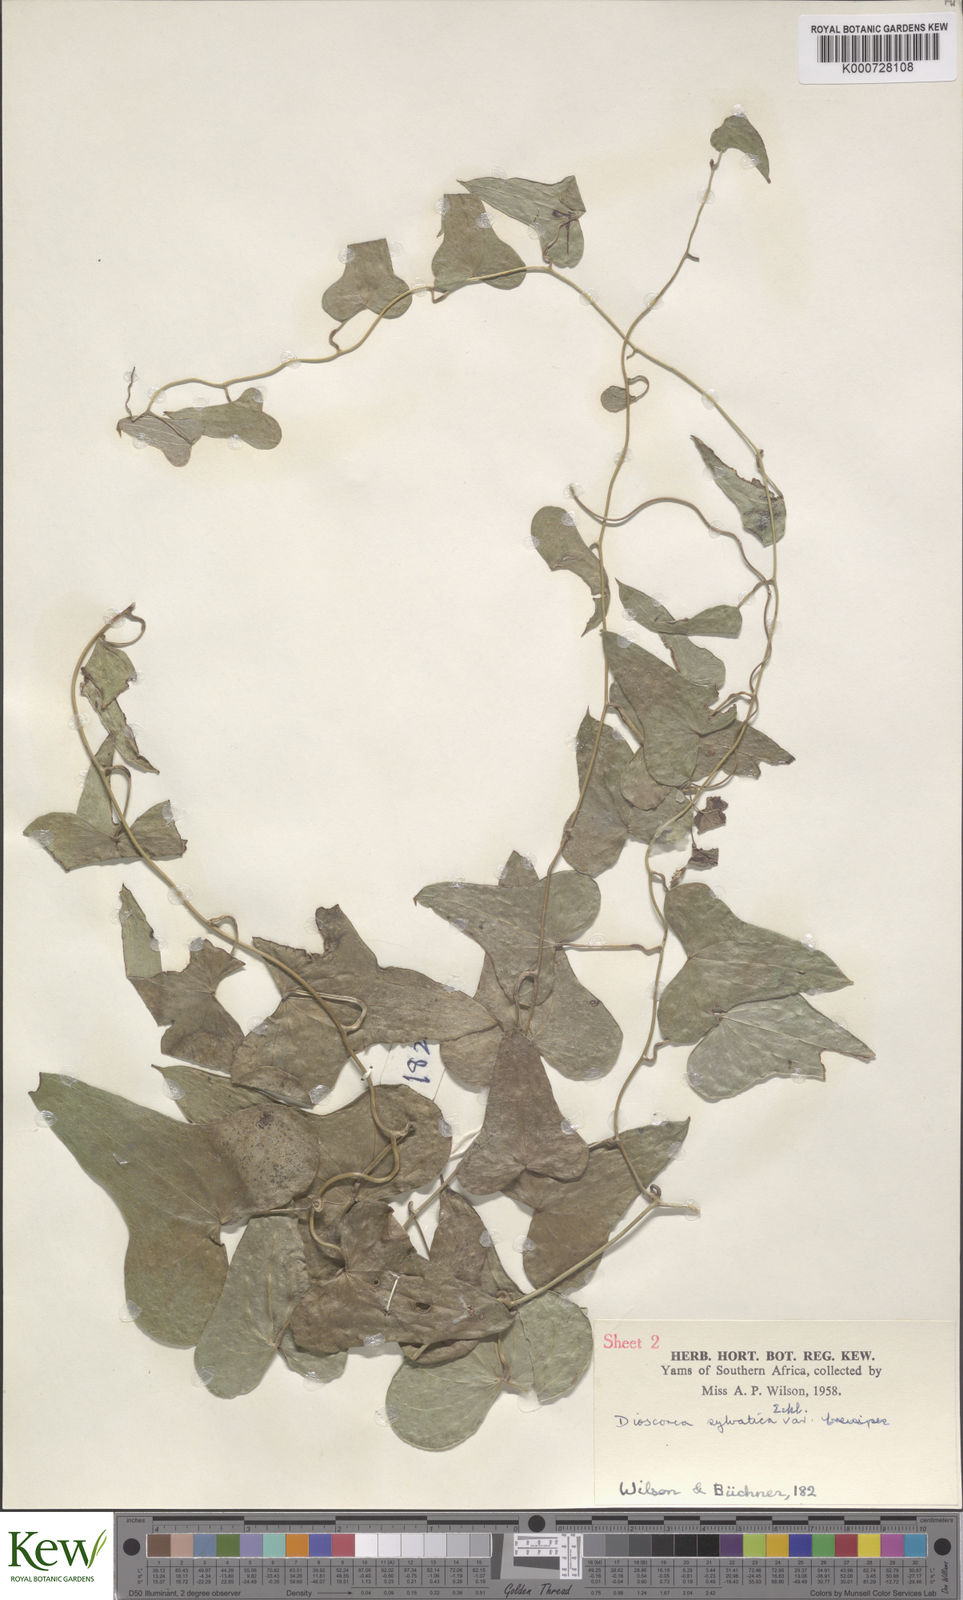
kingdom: Plantae
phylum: Tracheophyta
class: Liliopsida
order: Dioscoreales
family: Dioscoreaceae
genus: Dioscorea
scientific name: Dioscorea sylvatica
